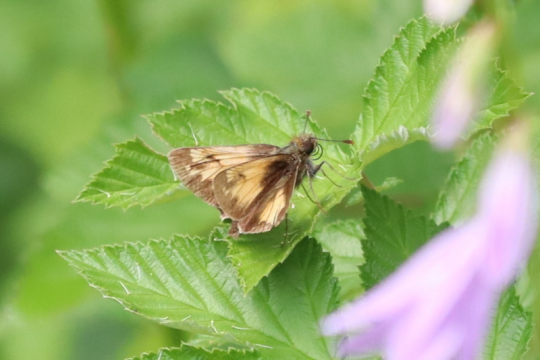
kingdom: Animalia
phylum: Arthropoda
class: Insecta
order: Lepidoptera
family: Hesperiidae
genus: Lon
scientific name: Lon hobomok
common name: Hobomok Skipper
